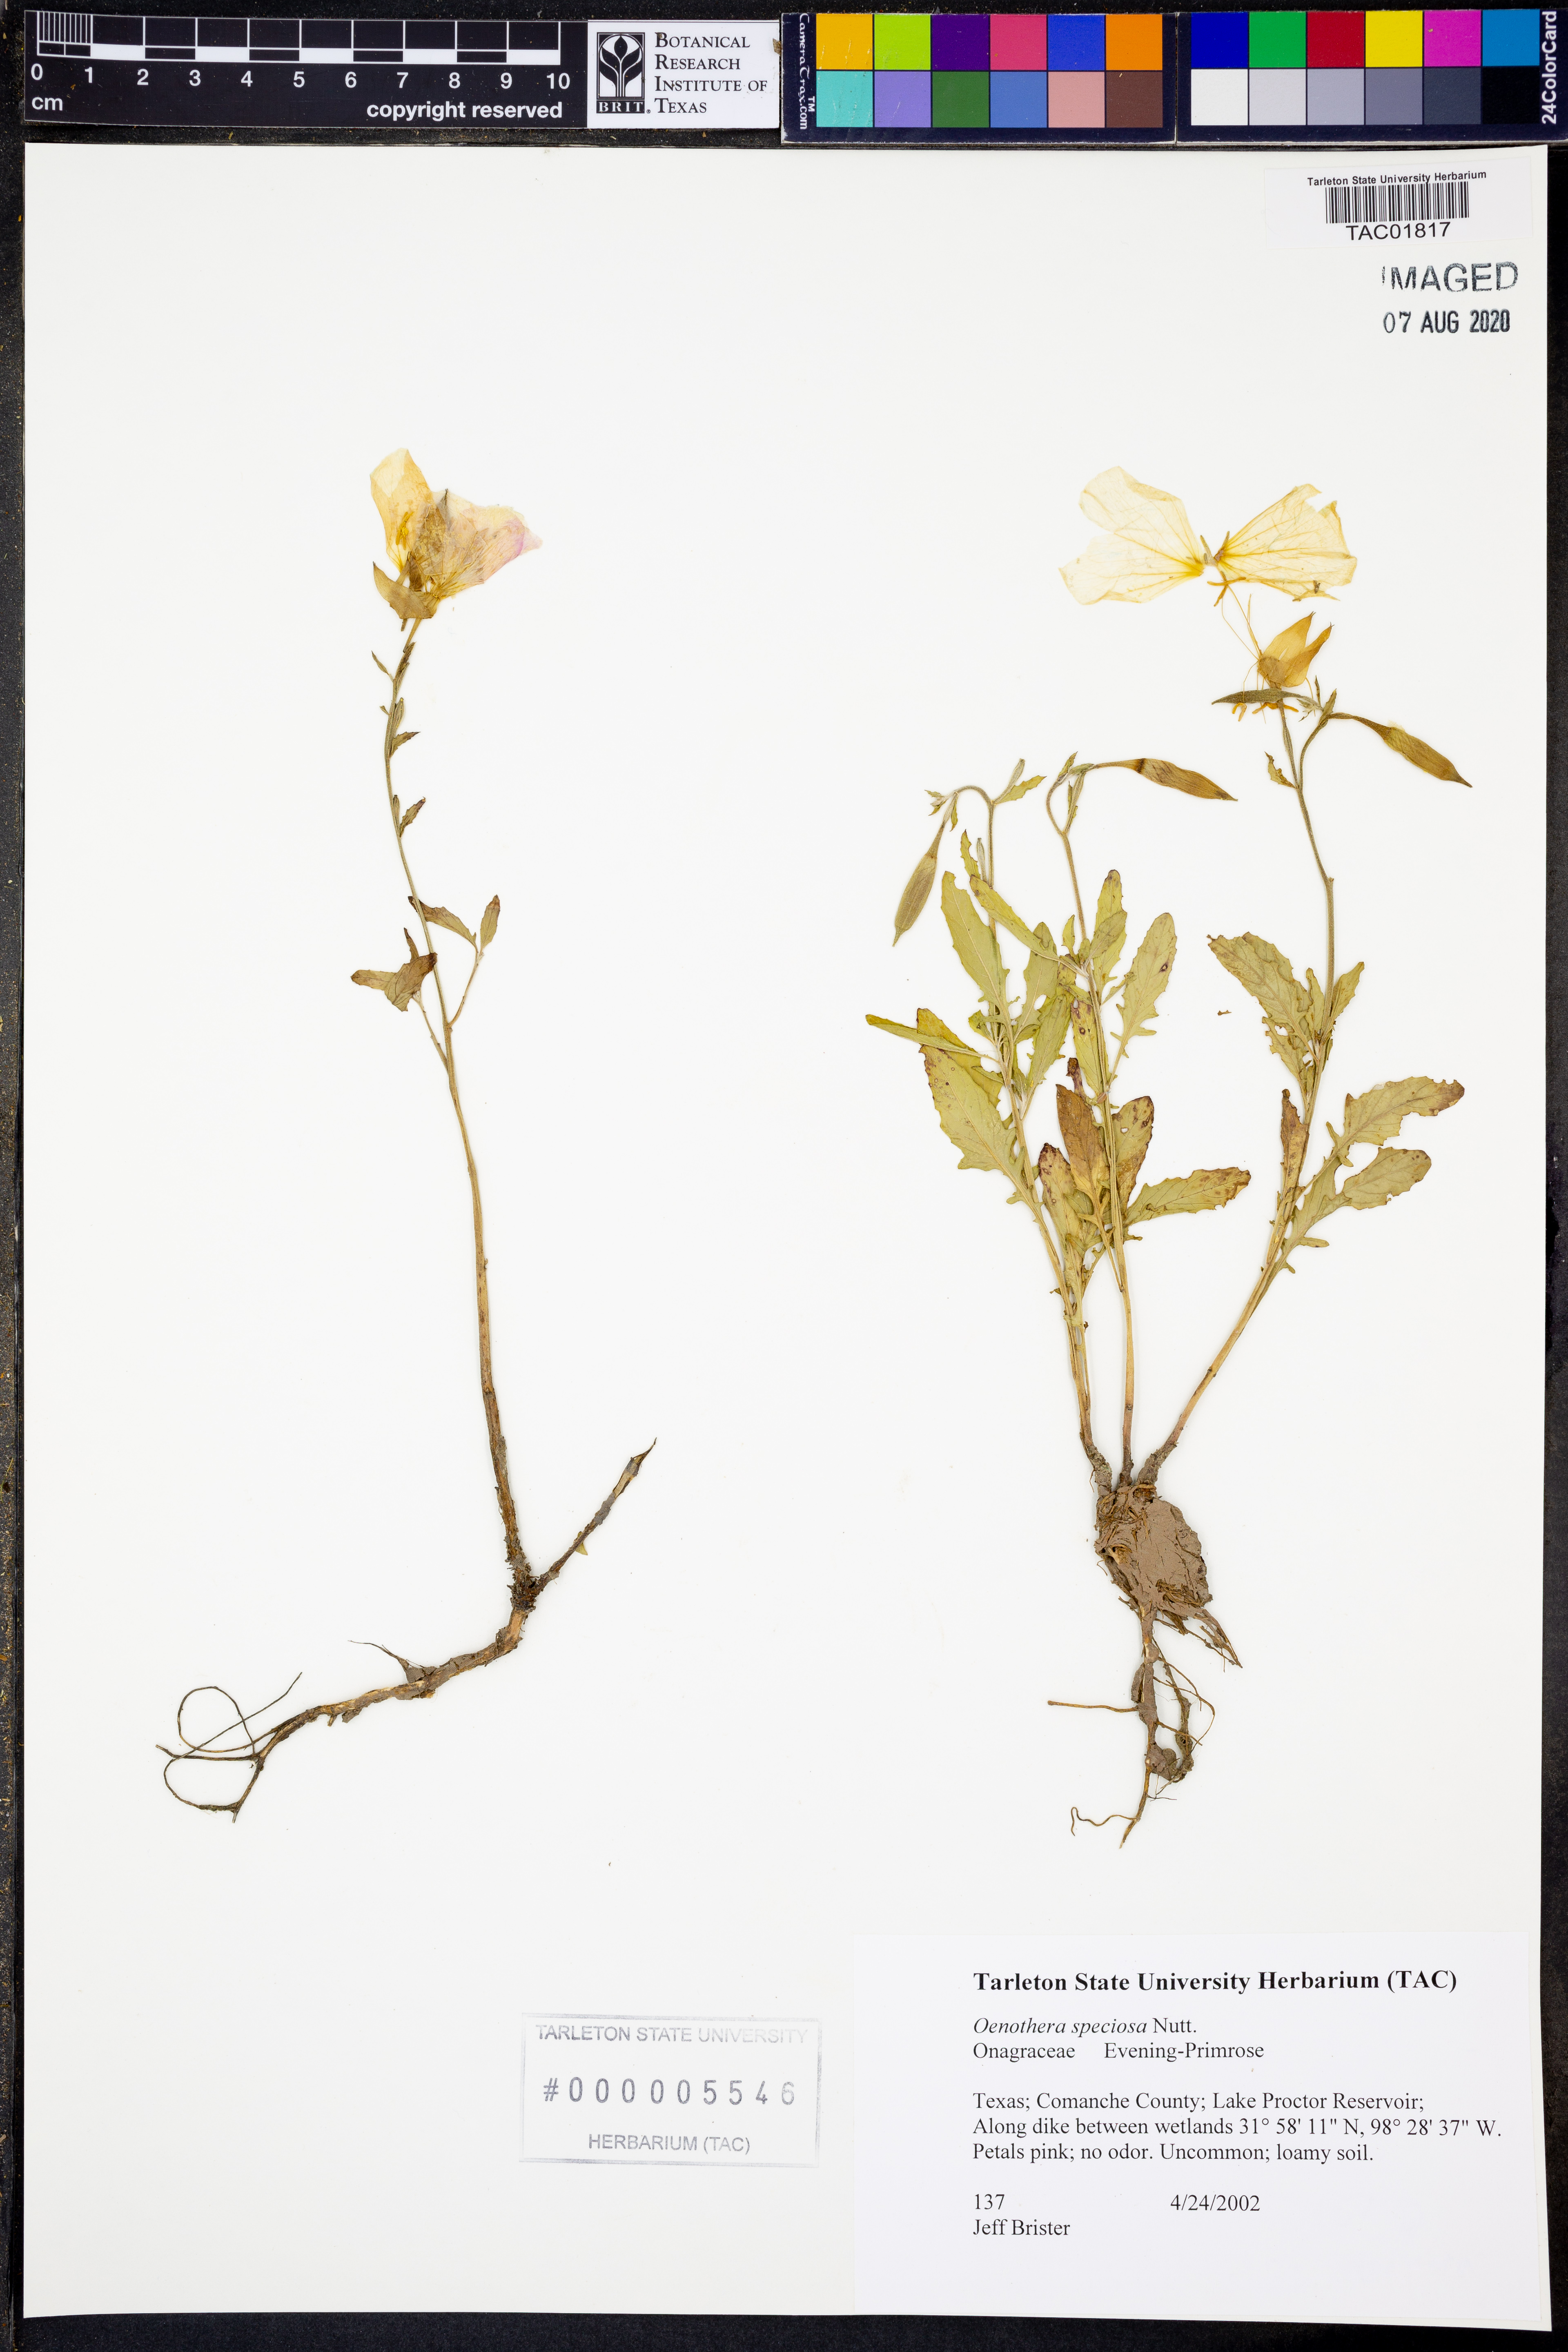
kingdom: Plantae
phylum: Tracheophyta
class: Magnoliopsida
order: Myrtales
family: Onagraceae
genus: Oenothera
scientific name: Oenothera speciosa
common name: White evening-primrose
